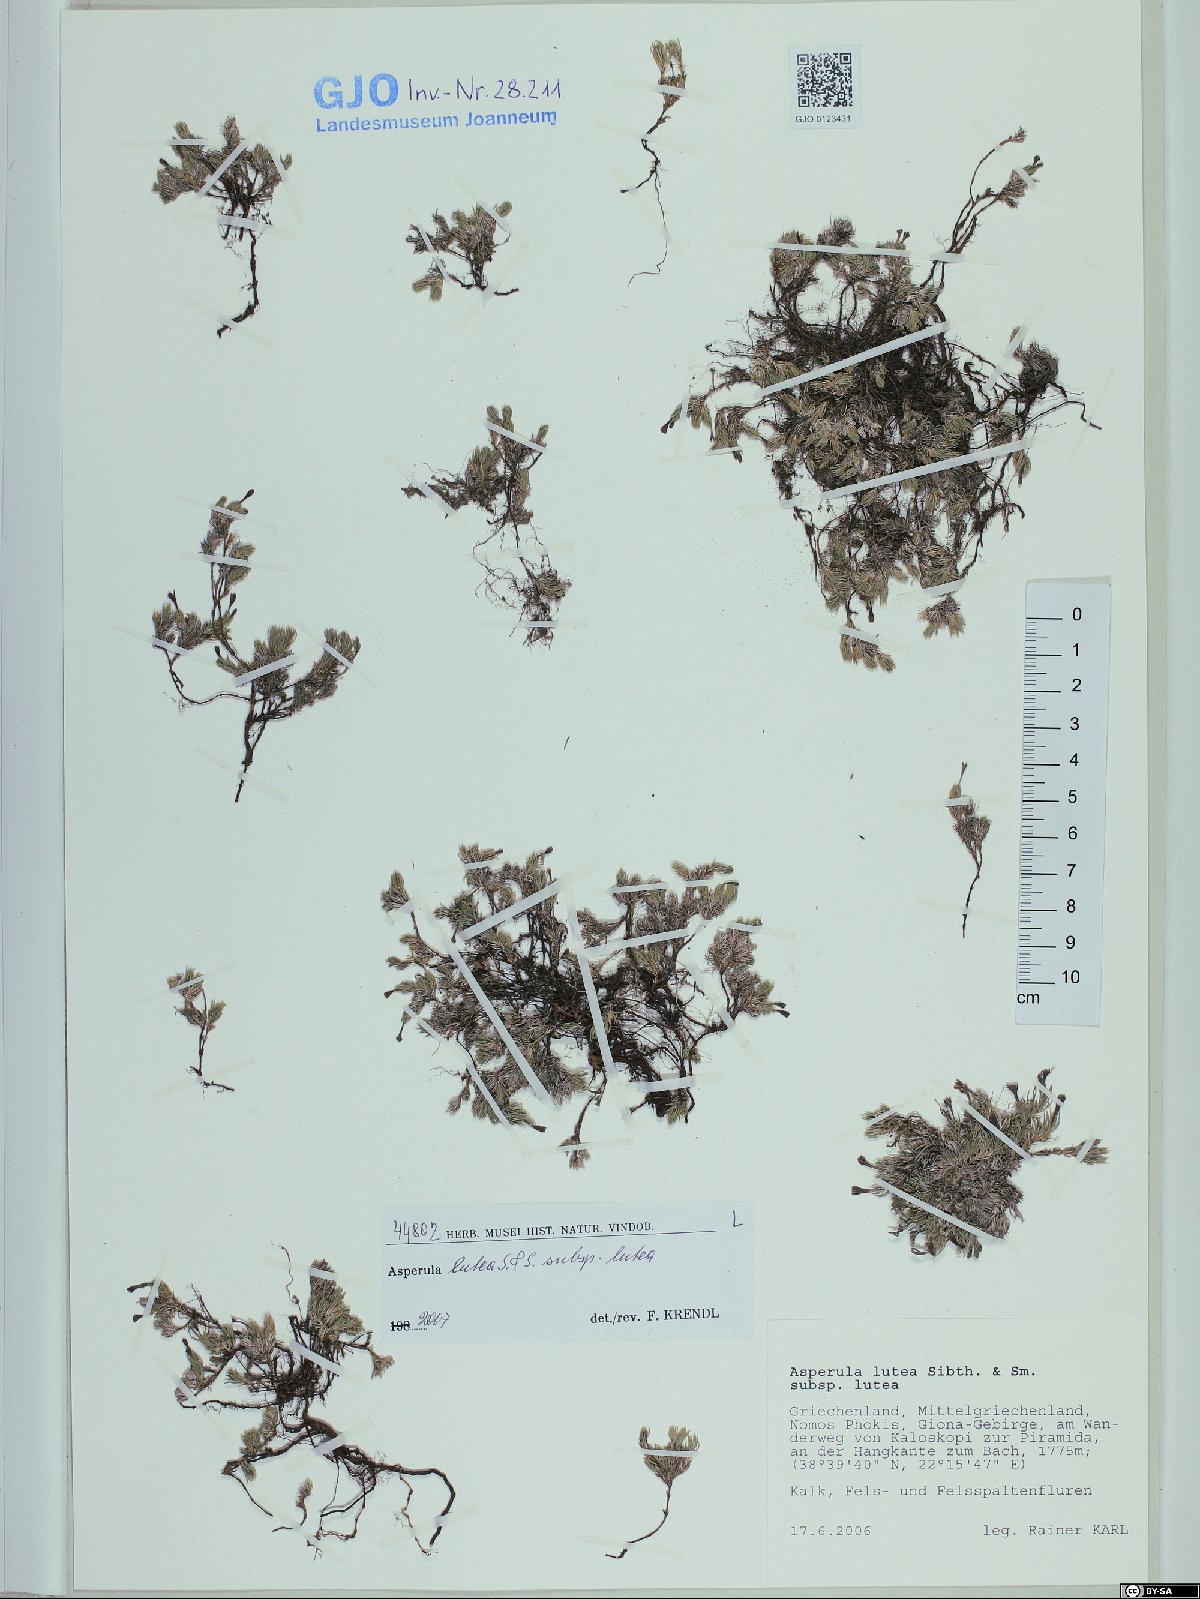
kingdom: Plantae
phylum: Tracheophyta
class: Magnoliopsida
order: Gentianales
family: Rubiaceae
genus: Cynanchica
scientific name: Cynanchica lutea
